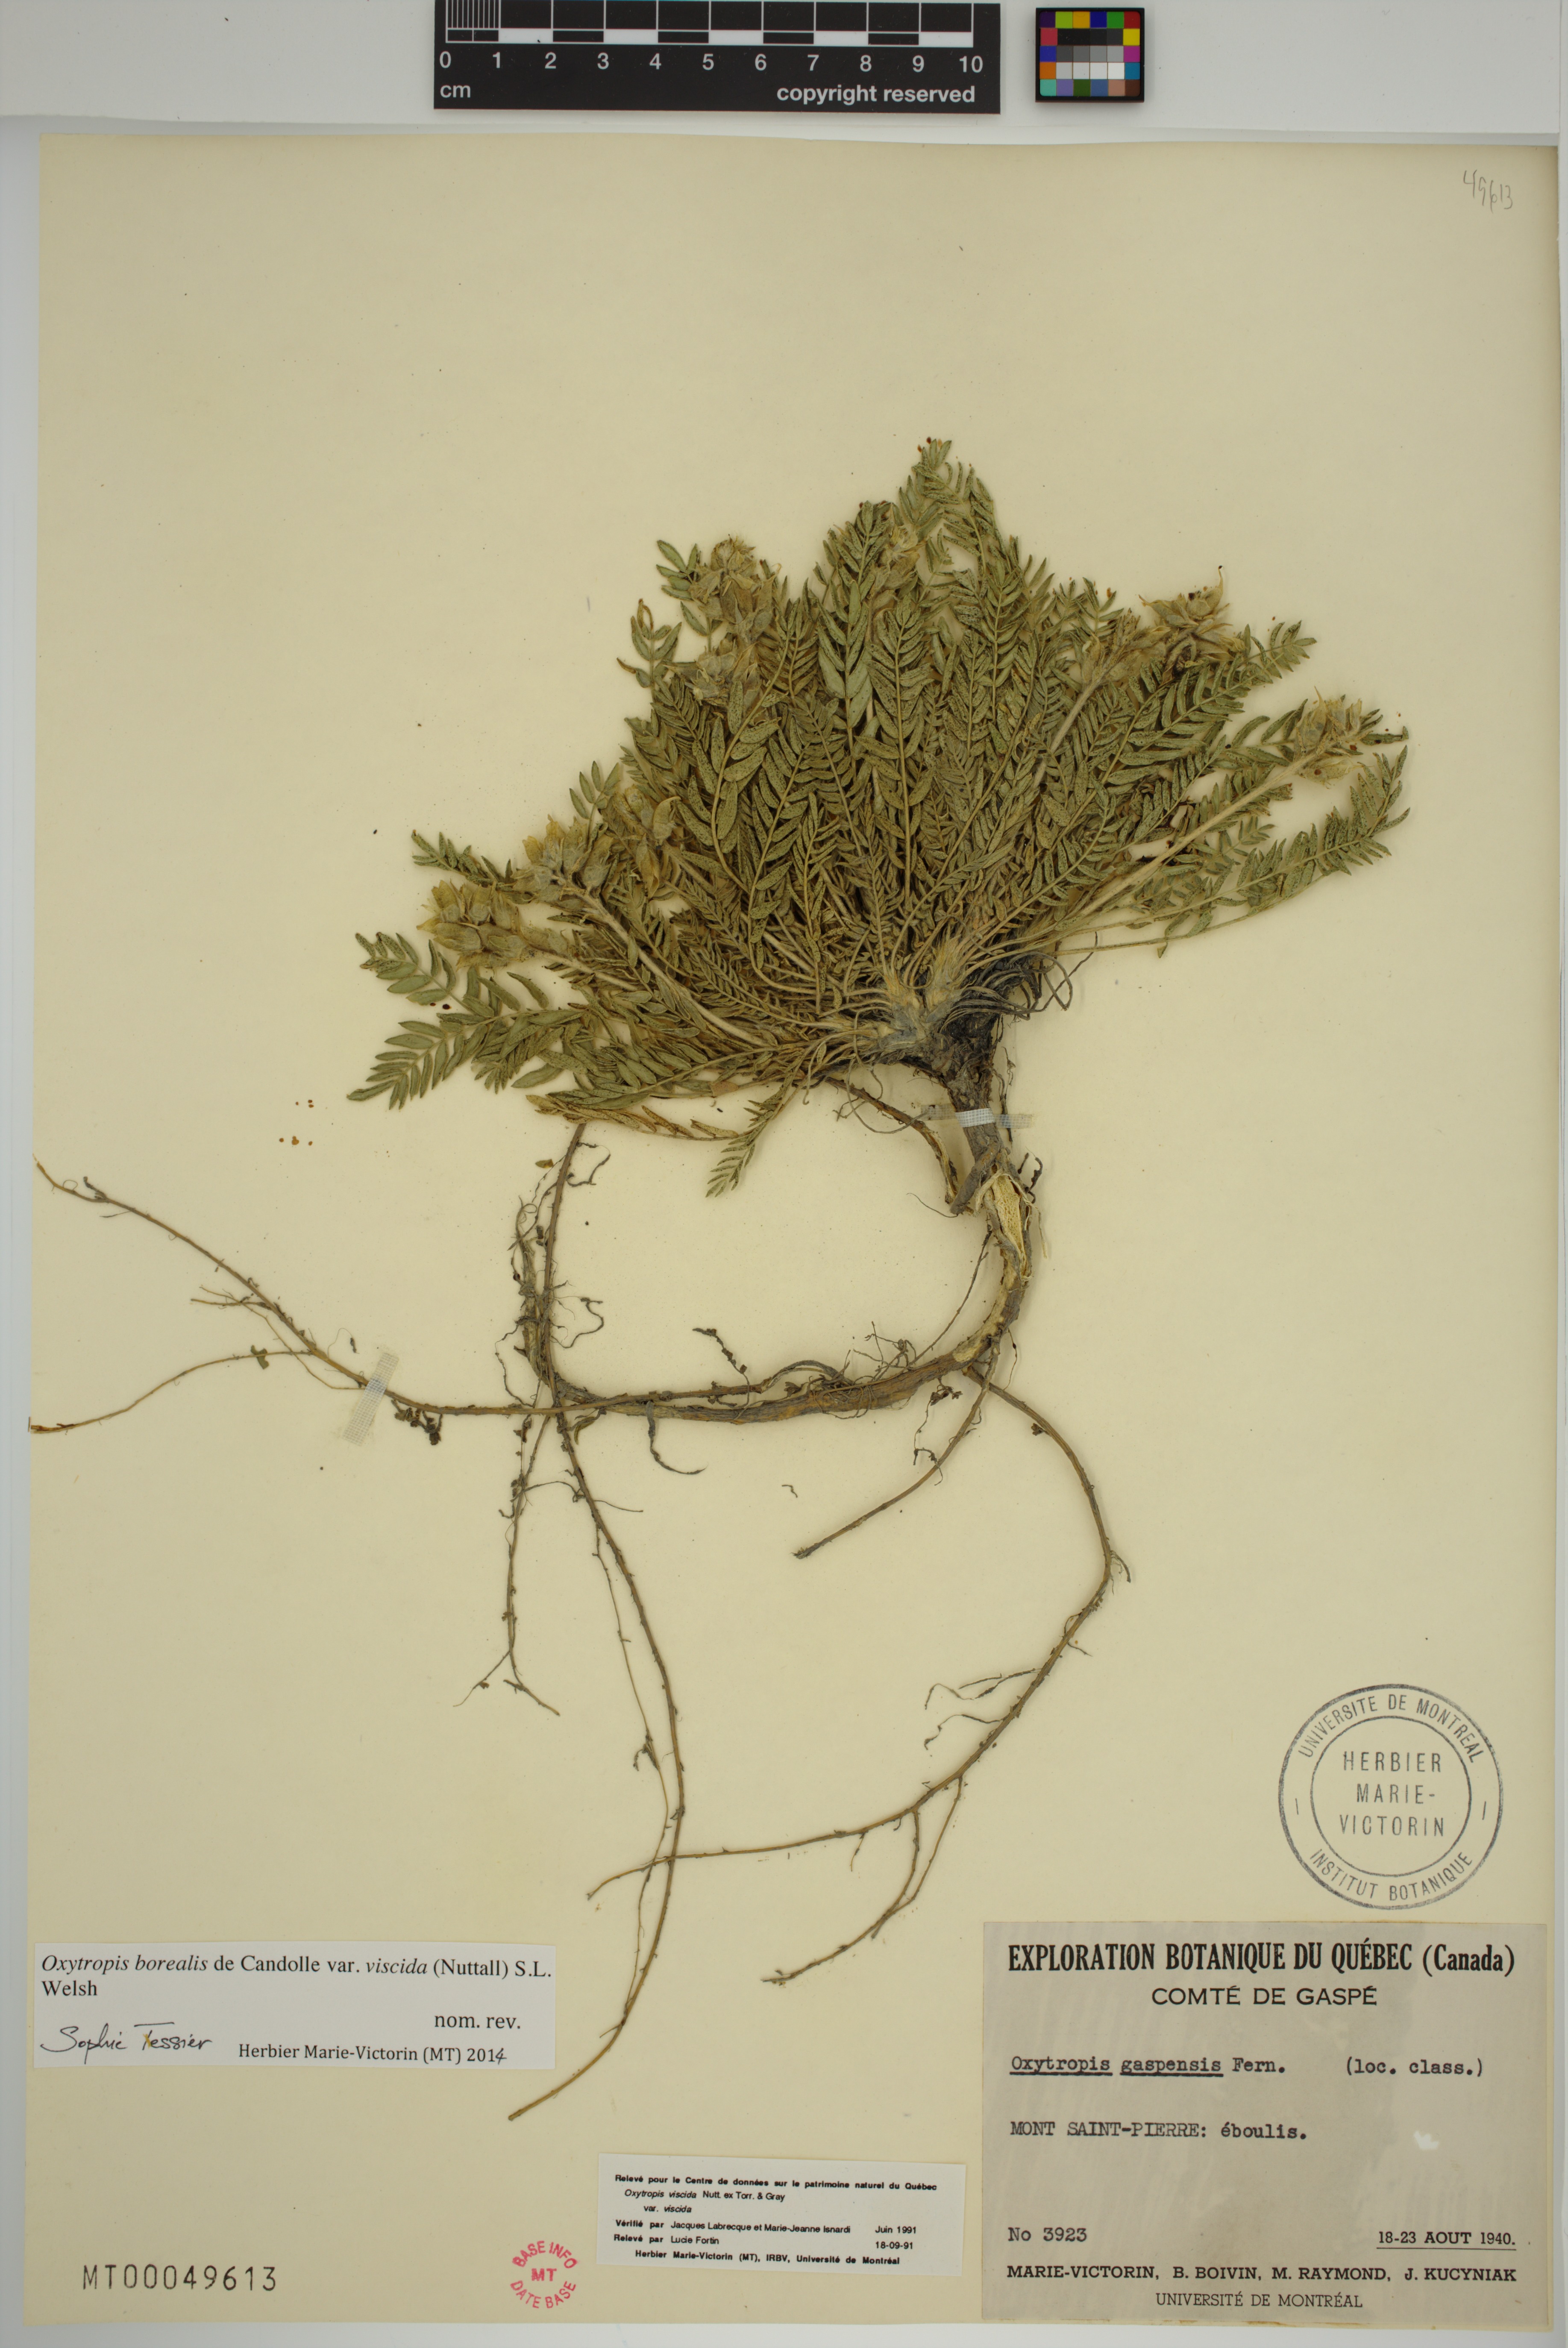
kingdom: Plantae
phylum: Tracheophyta
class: Magnoliopsida
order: Fabales
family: Fabaceae
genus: Oxytropis
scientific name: Oxytropis borealis
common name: Boreal locoweed
